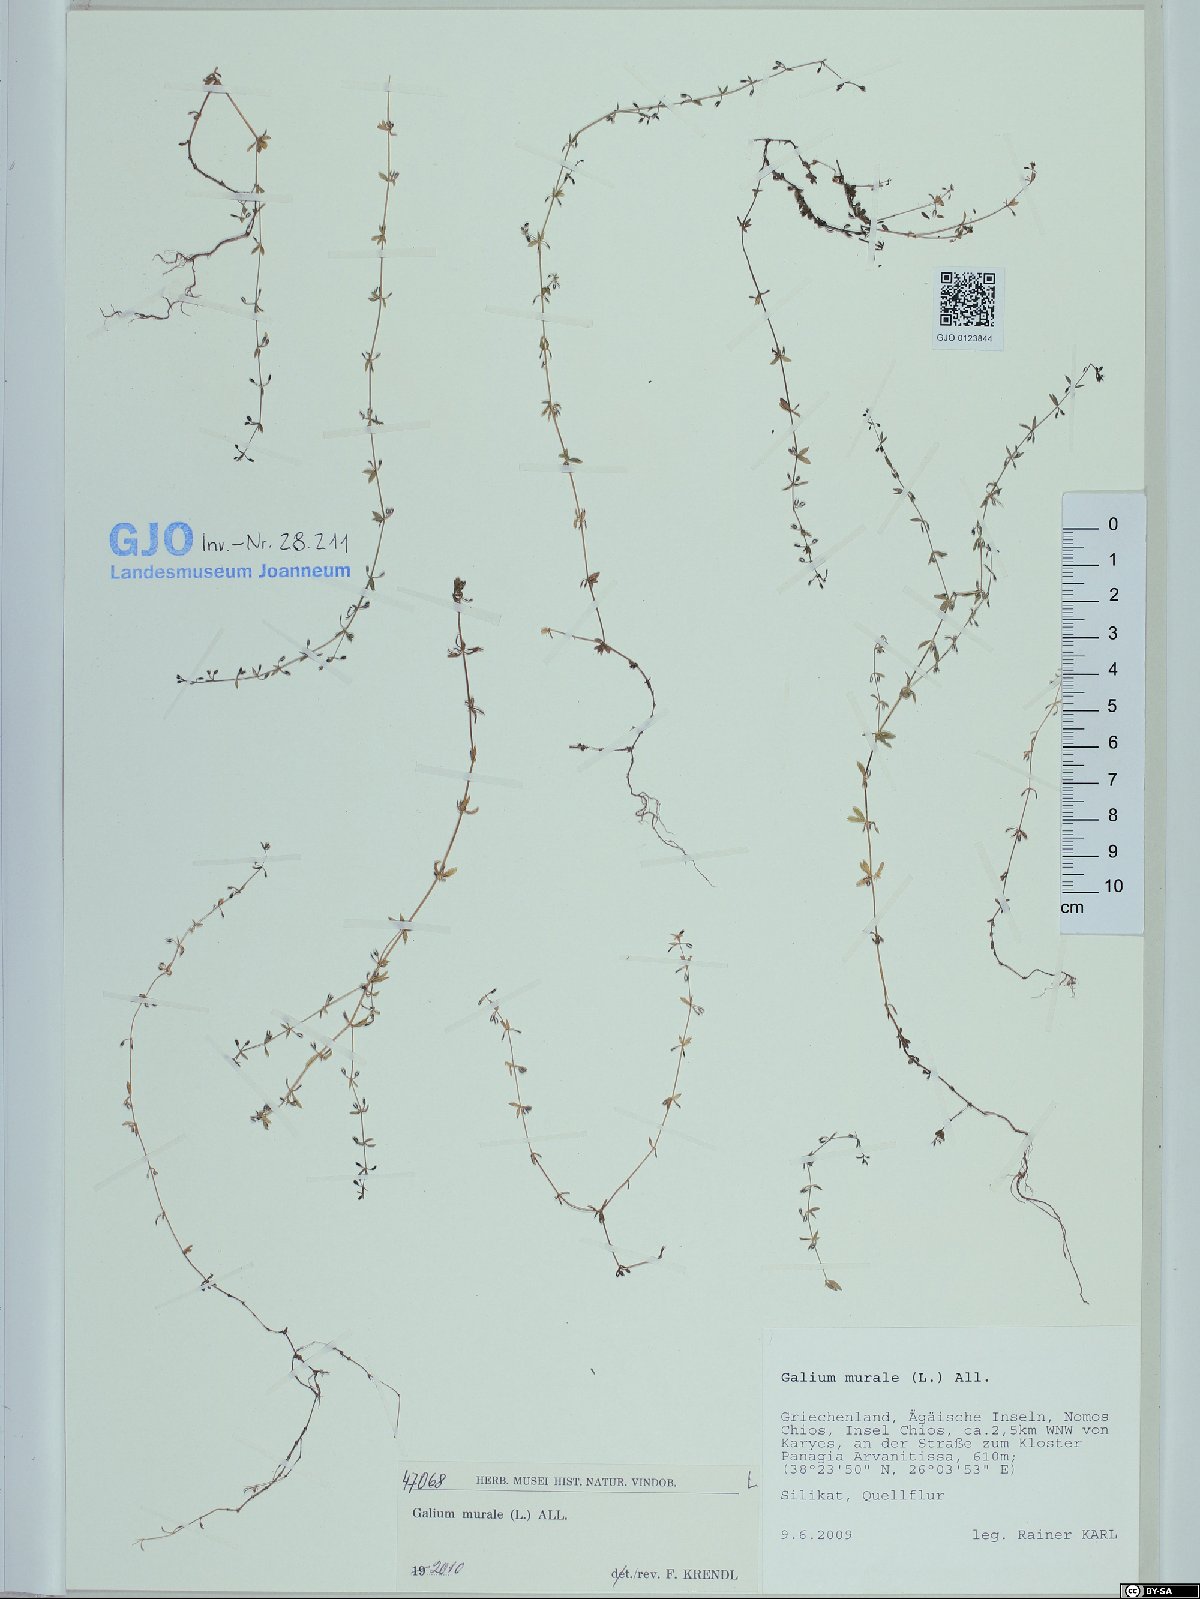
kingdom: Plantae
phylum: Tracheophyta
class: Magnoliopsida
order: Gentianales
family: Rubiaceae
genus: Galium
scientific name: Galium murale
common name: Yellow wall bedstraw
